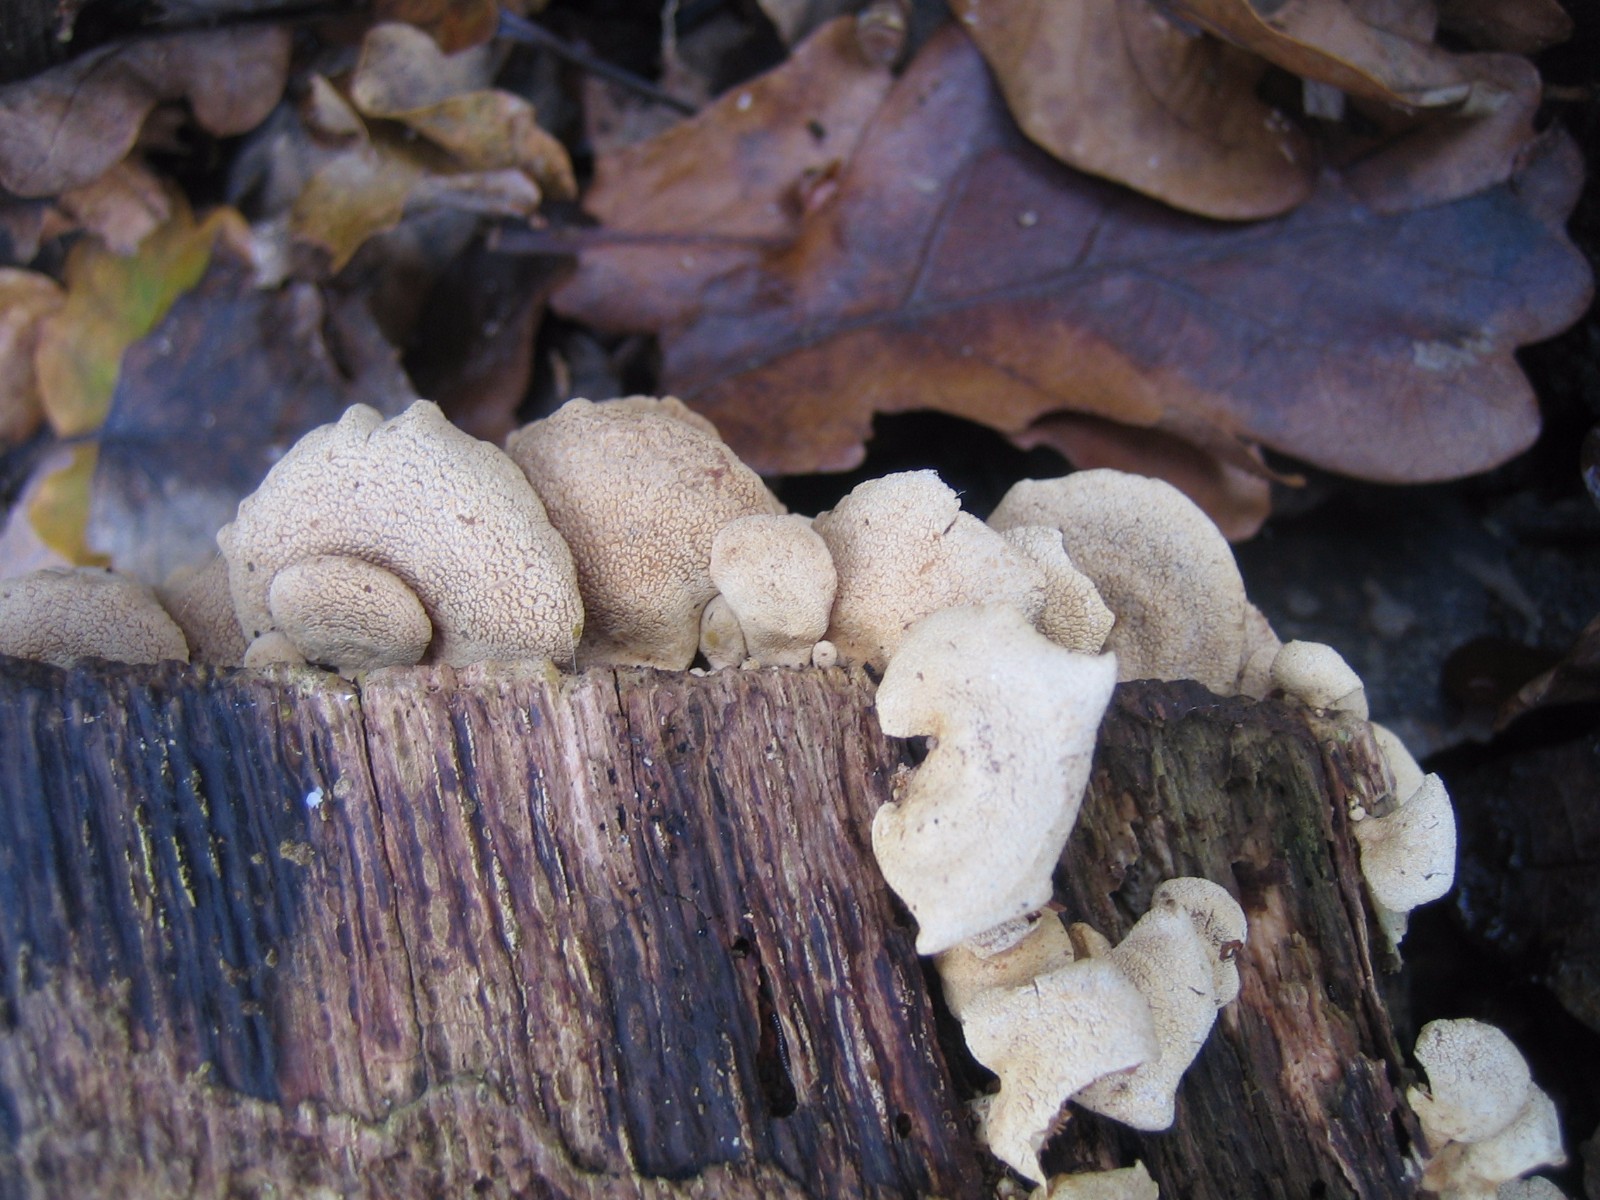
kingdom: Fungi
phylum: Basidiomycota
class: Agaricomycetes
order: Agaricales
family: Mycenaceae
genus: Panellus
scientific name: Panellus stipticus
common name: kliddet epaulethat
